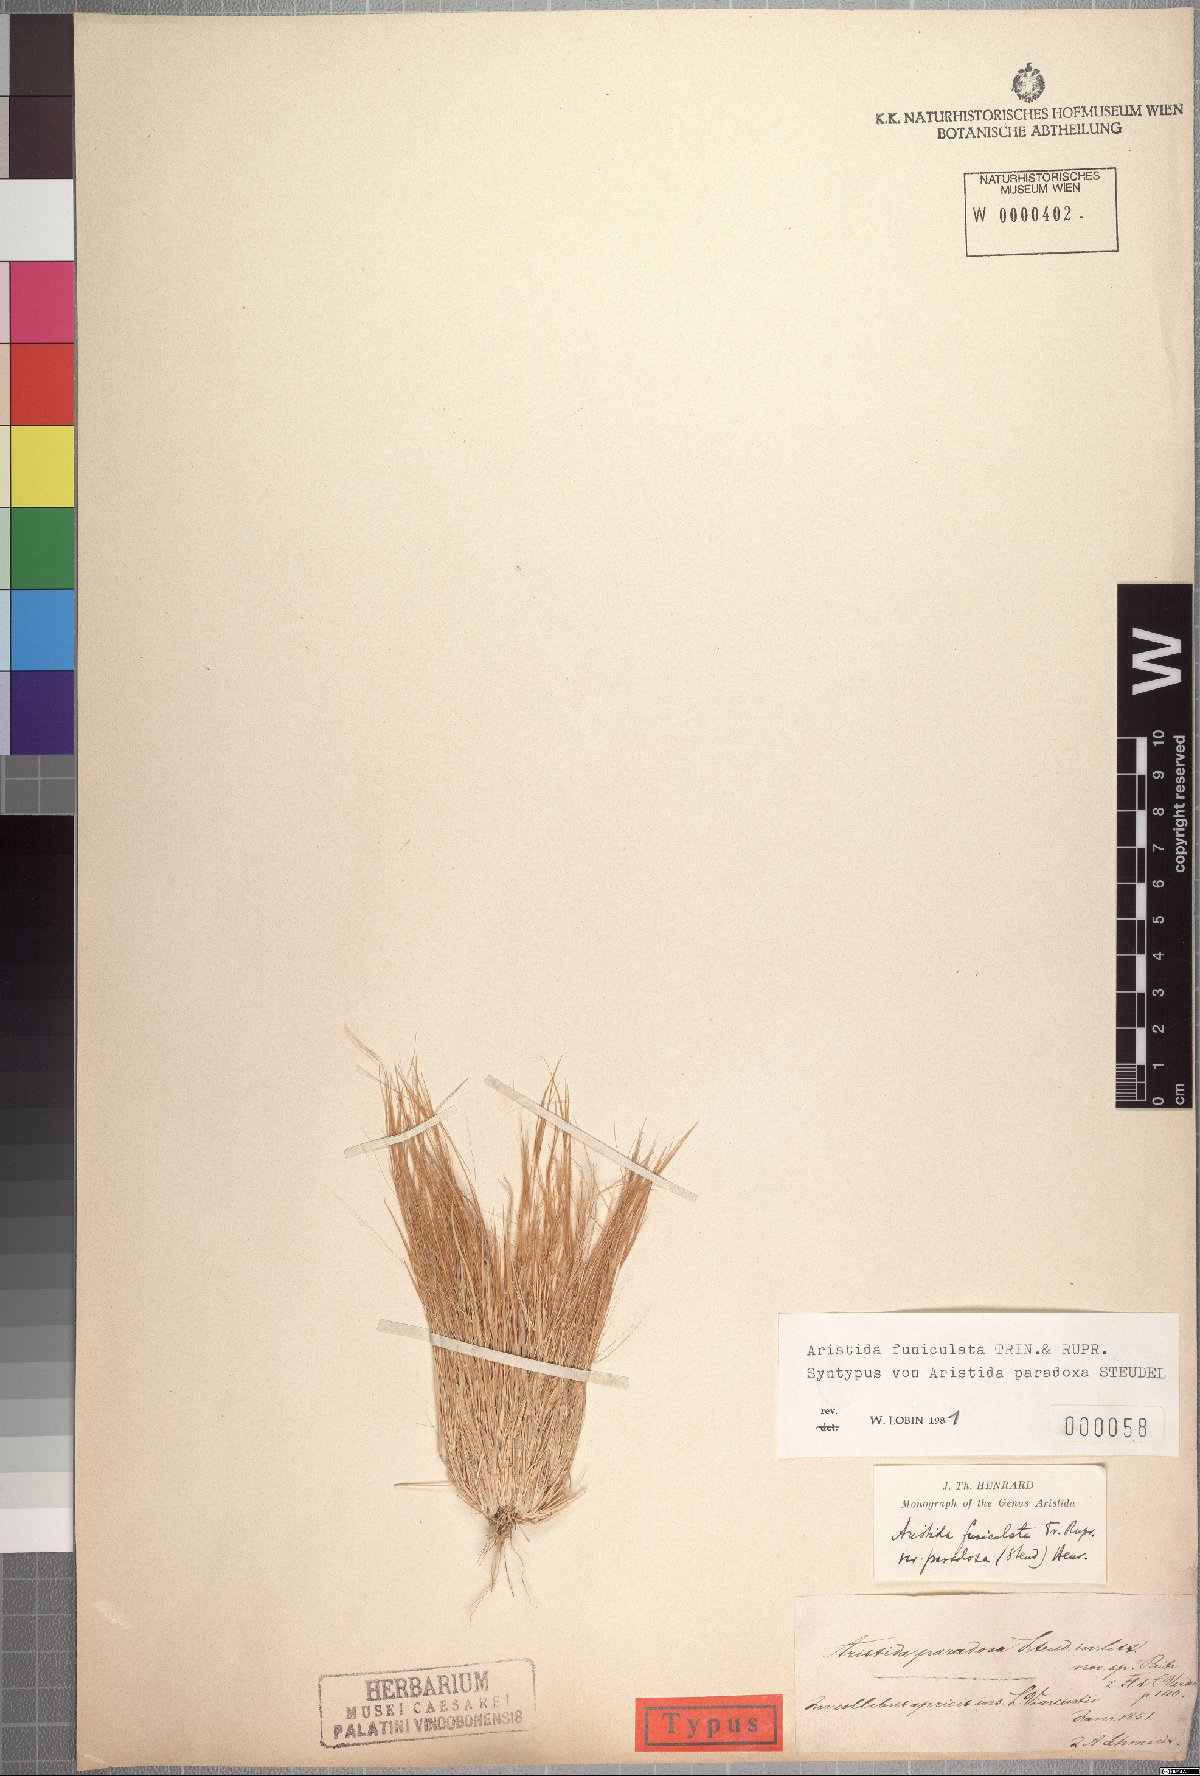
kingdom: Plantae
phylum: Tracheophyta
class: Liliopsida
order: Poales
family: Poaceae
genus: Aristida
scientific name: Aristida funiculata
